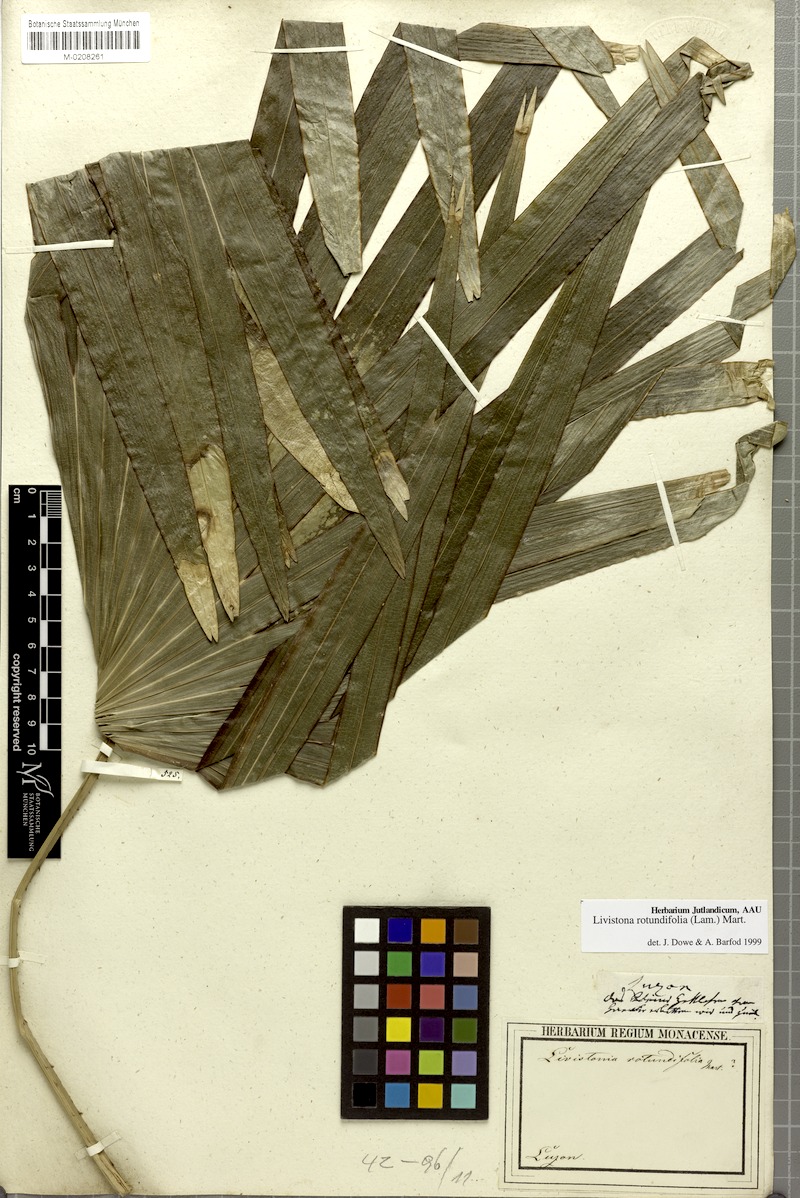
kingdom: Plantae
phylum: Tracheophyta
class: Liliopsida
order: Arecales
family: Arecaceae
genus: Saribus
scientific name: Saribus rotundifolius
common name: Palm
